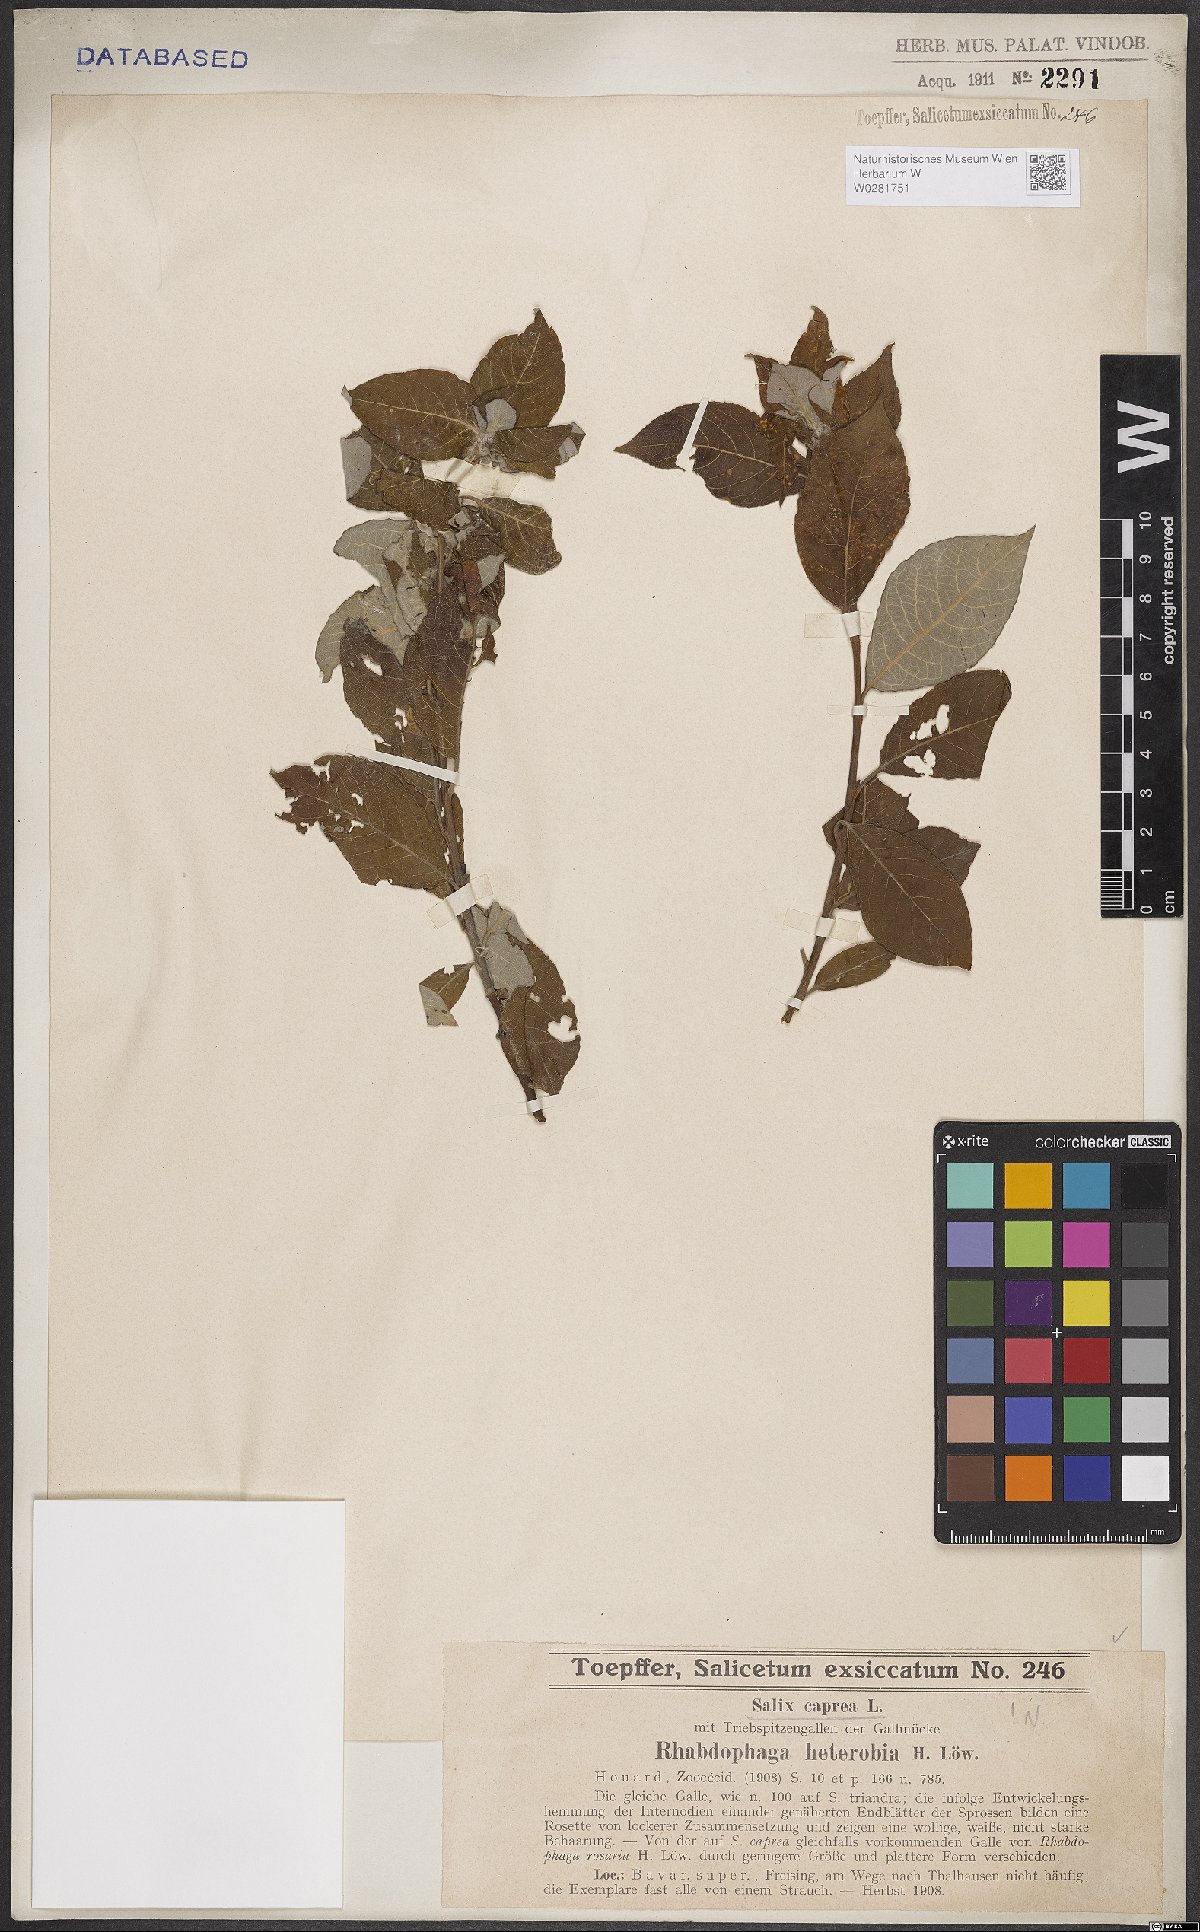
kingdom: Plantae
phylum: Tracheophyta
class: Magnoliopsida
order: Malpighiales
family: Salicaceae
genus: Salix
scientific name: Salix caprea
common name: Goat willow
